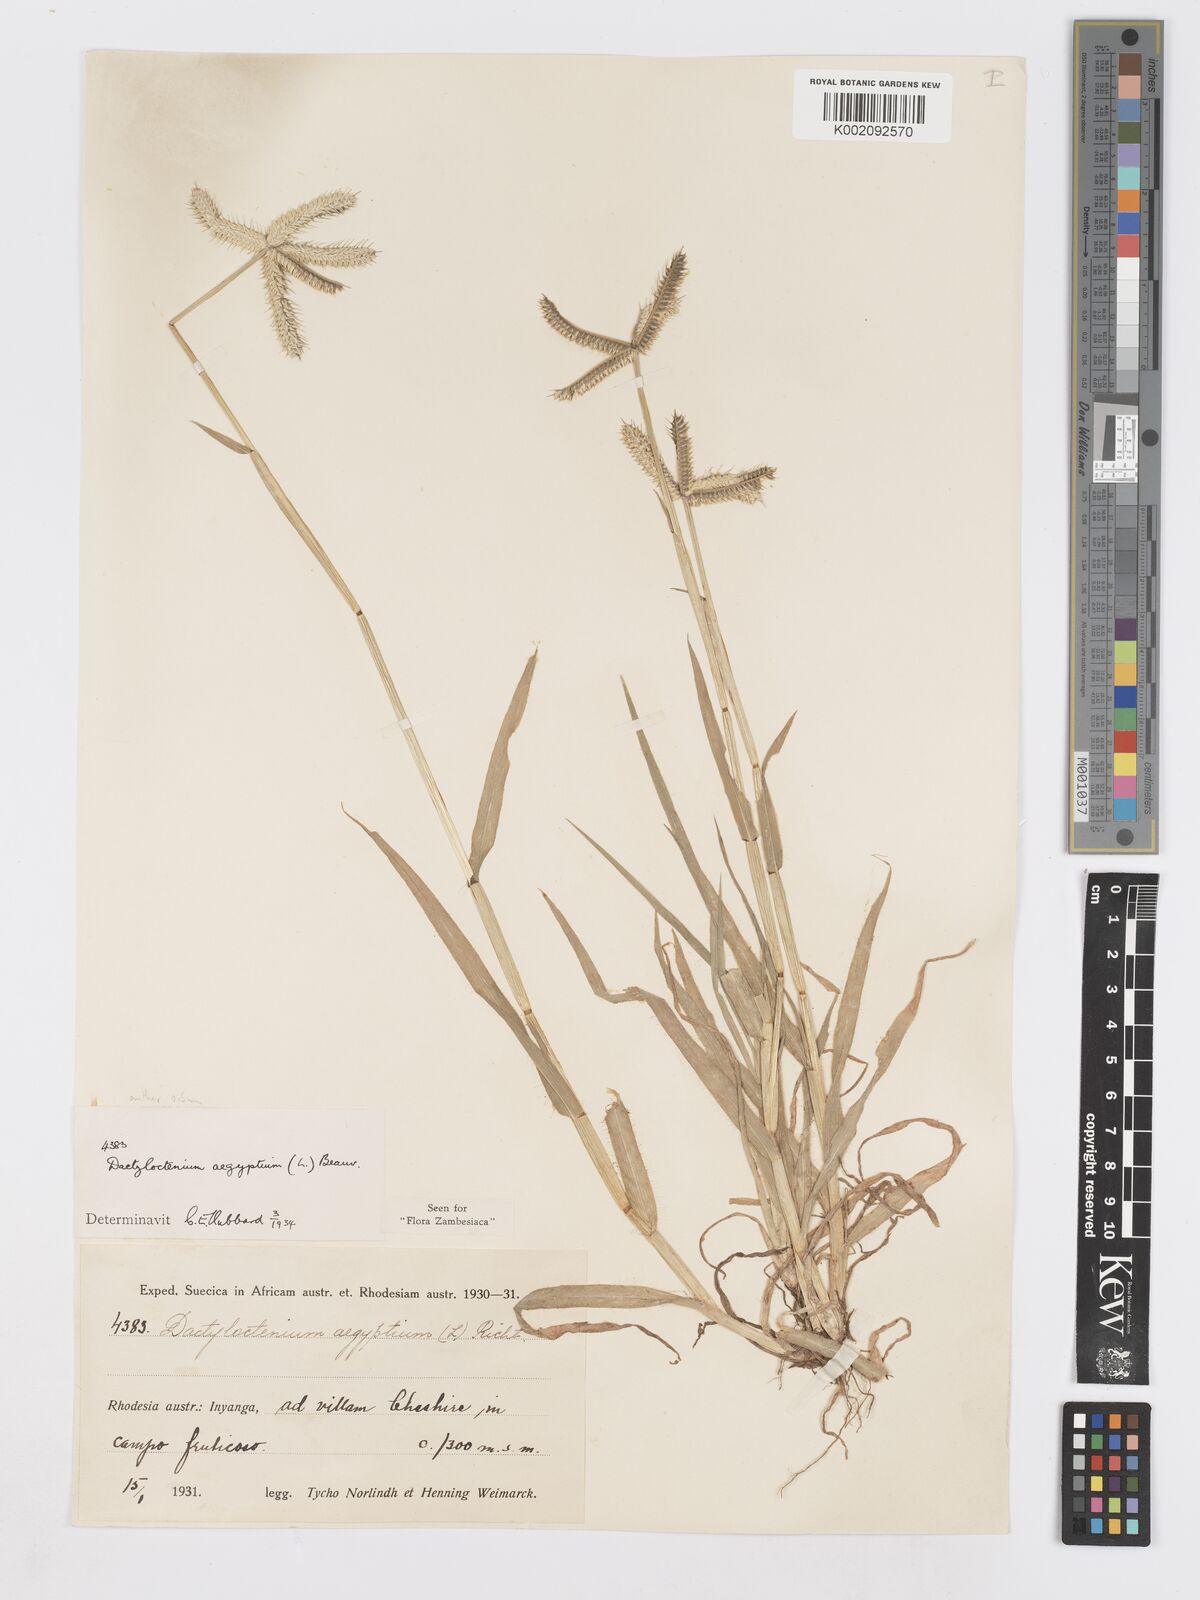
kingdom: Plantae
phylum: Tracheophyta
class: Liliopsida
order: Poales
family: Poaceae
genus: Dactyloctenium
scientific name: Dactyloctenium aegyptium
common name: Egyptian grass
